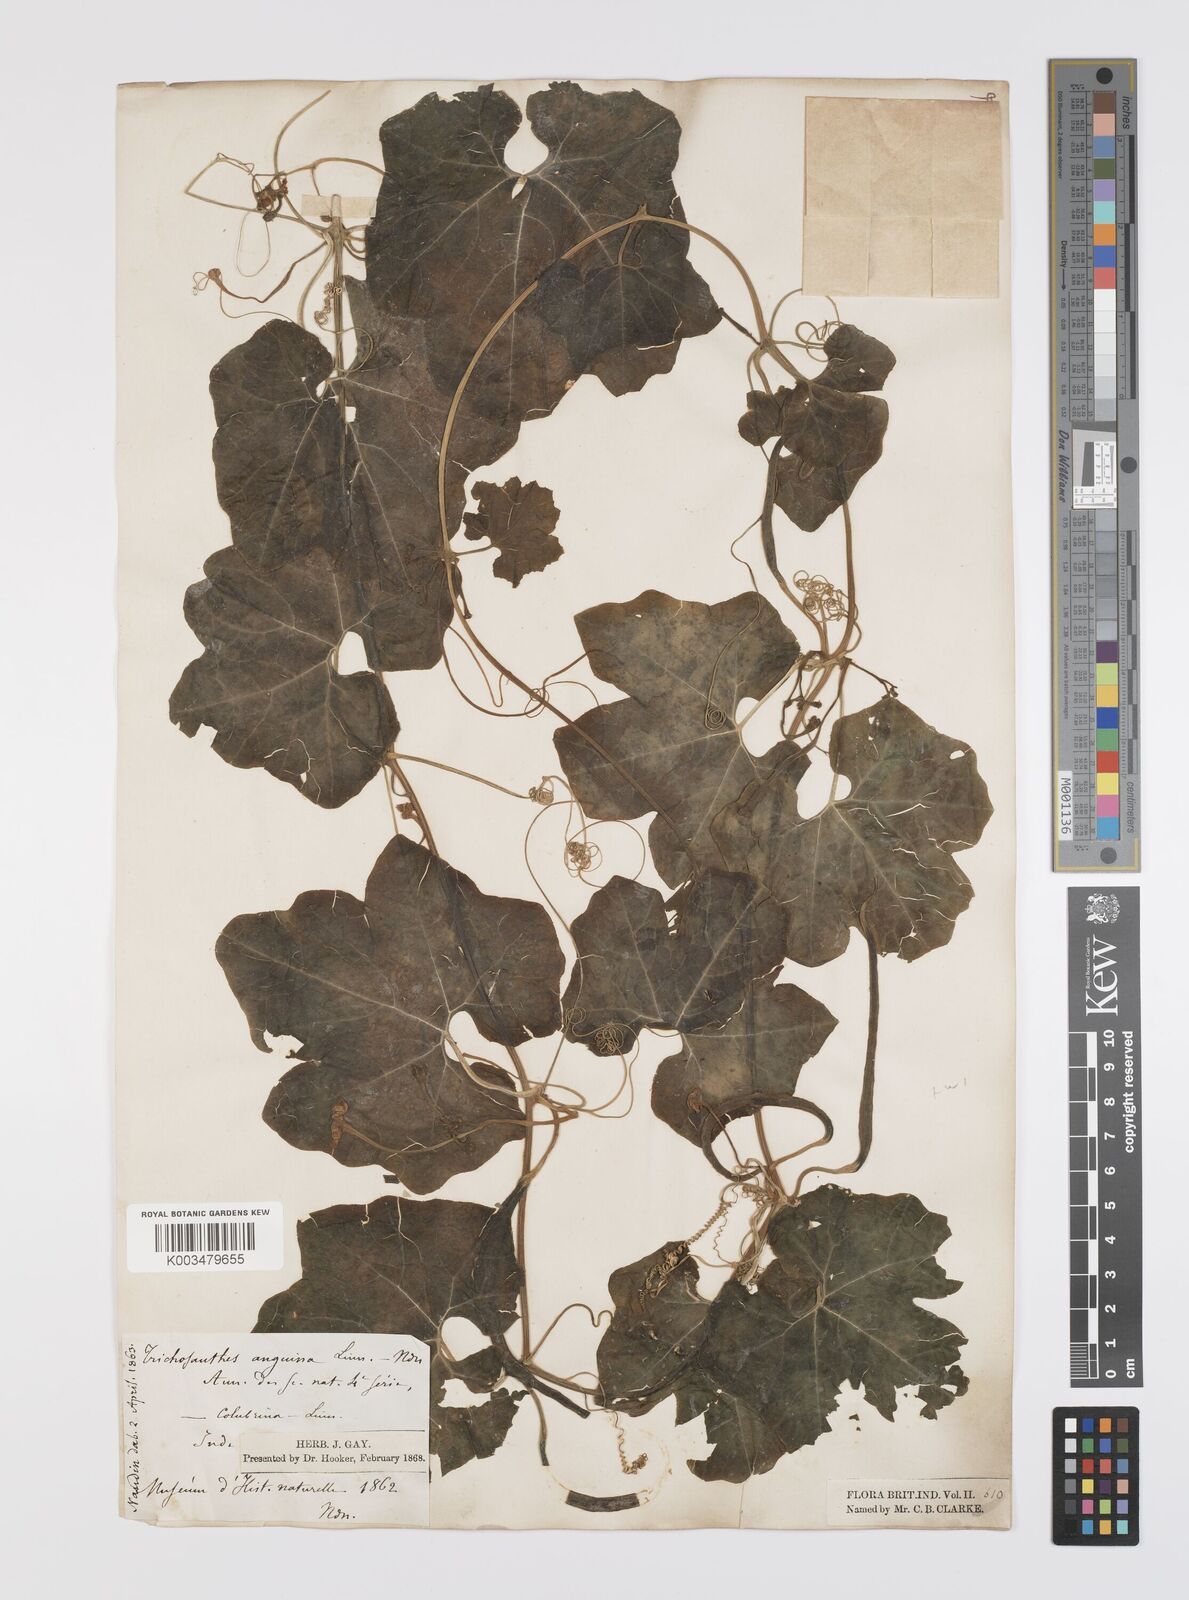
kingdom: Plantae
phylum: Tracheophyta
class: Magnoliopsida
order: Cucurbitales
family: Cucurbitaceae
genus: Trichosanthes
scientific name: Trichosanthes cucumerina
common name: Snakegourd
